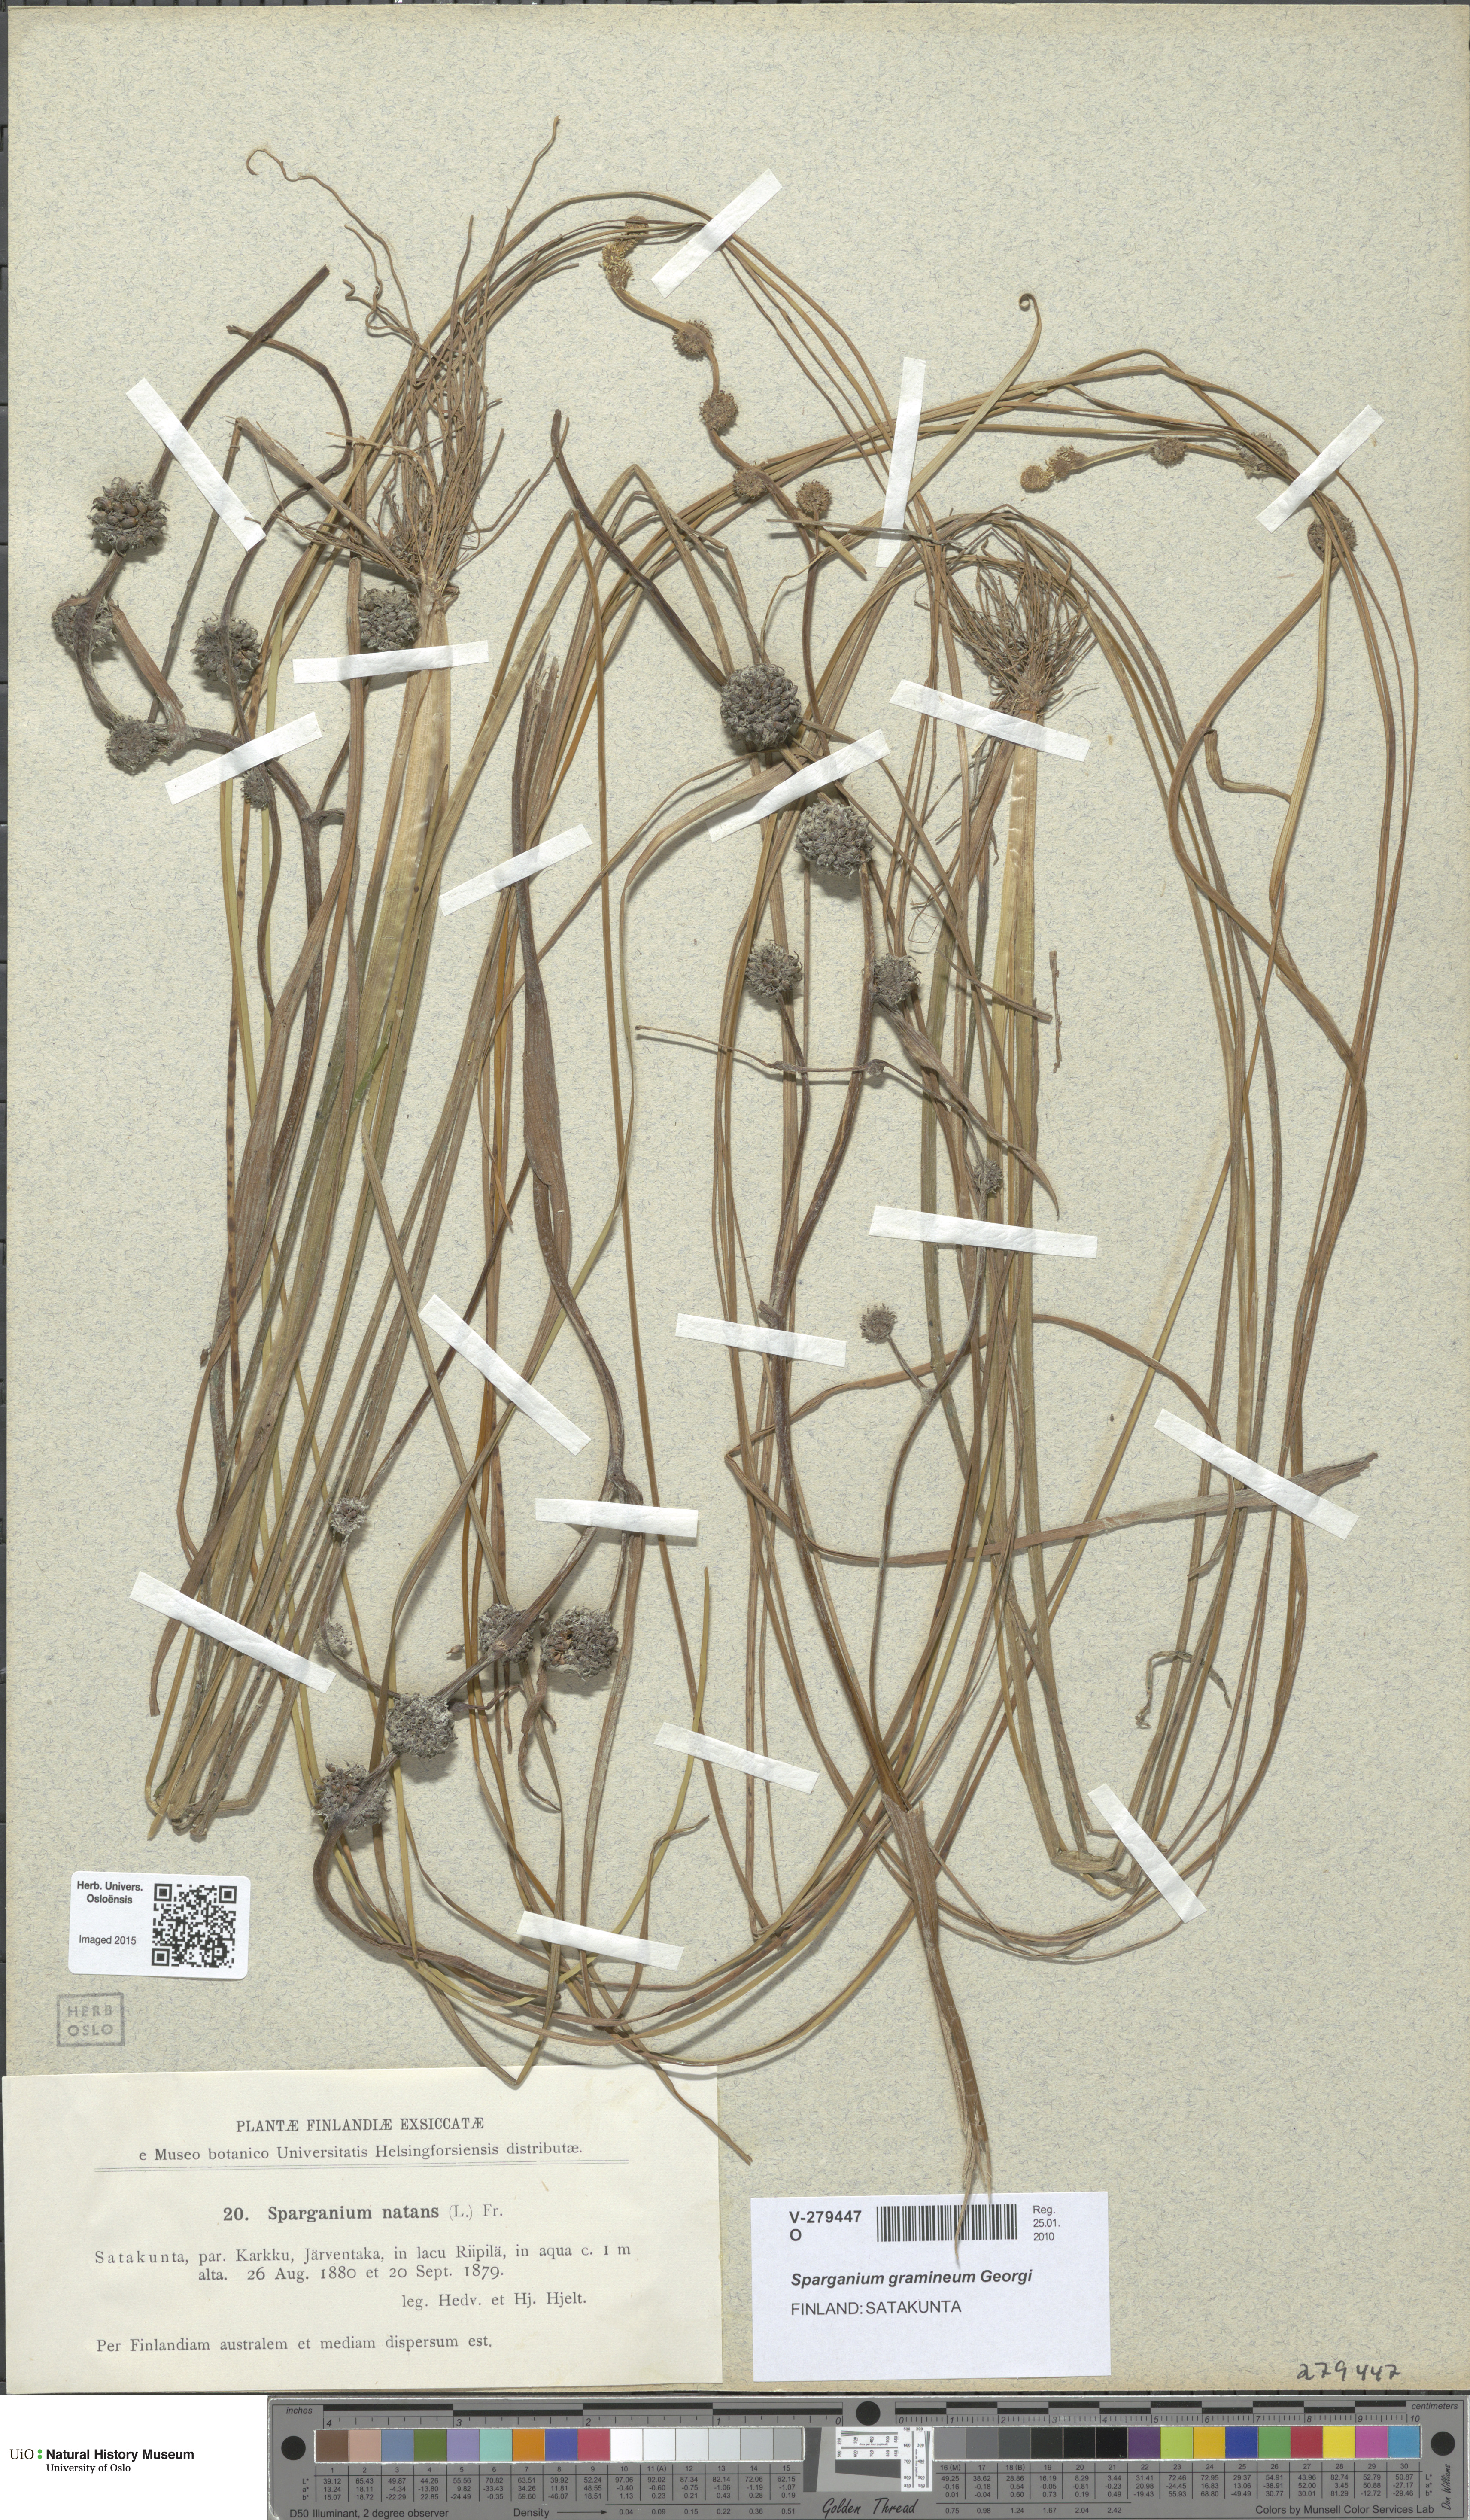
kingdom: Plantae
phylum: Tracheophyta
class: Liliopsida
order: Poales
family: Typhaceae
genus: Sparganium
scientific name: Sparganium gramineum
